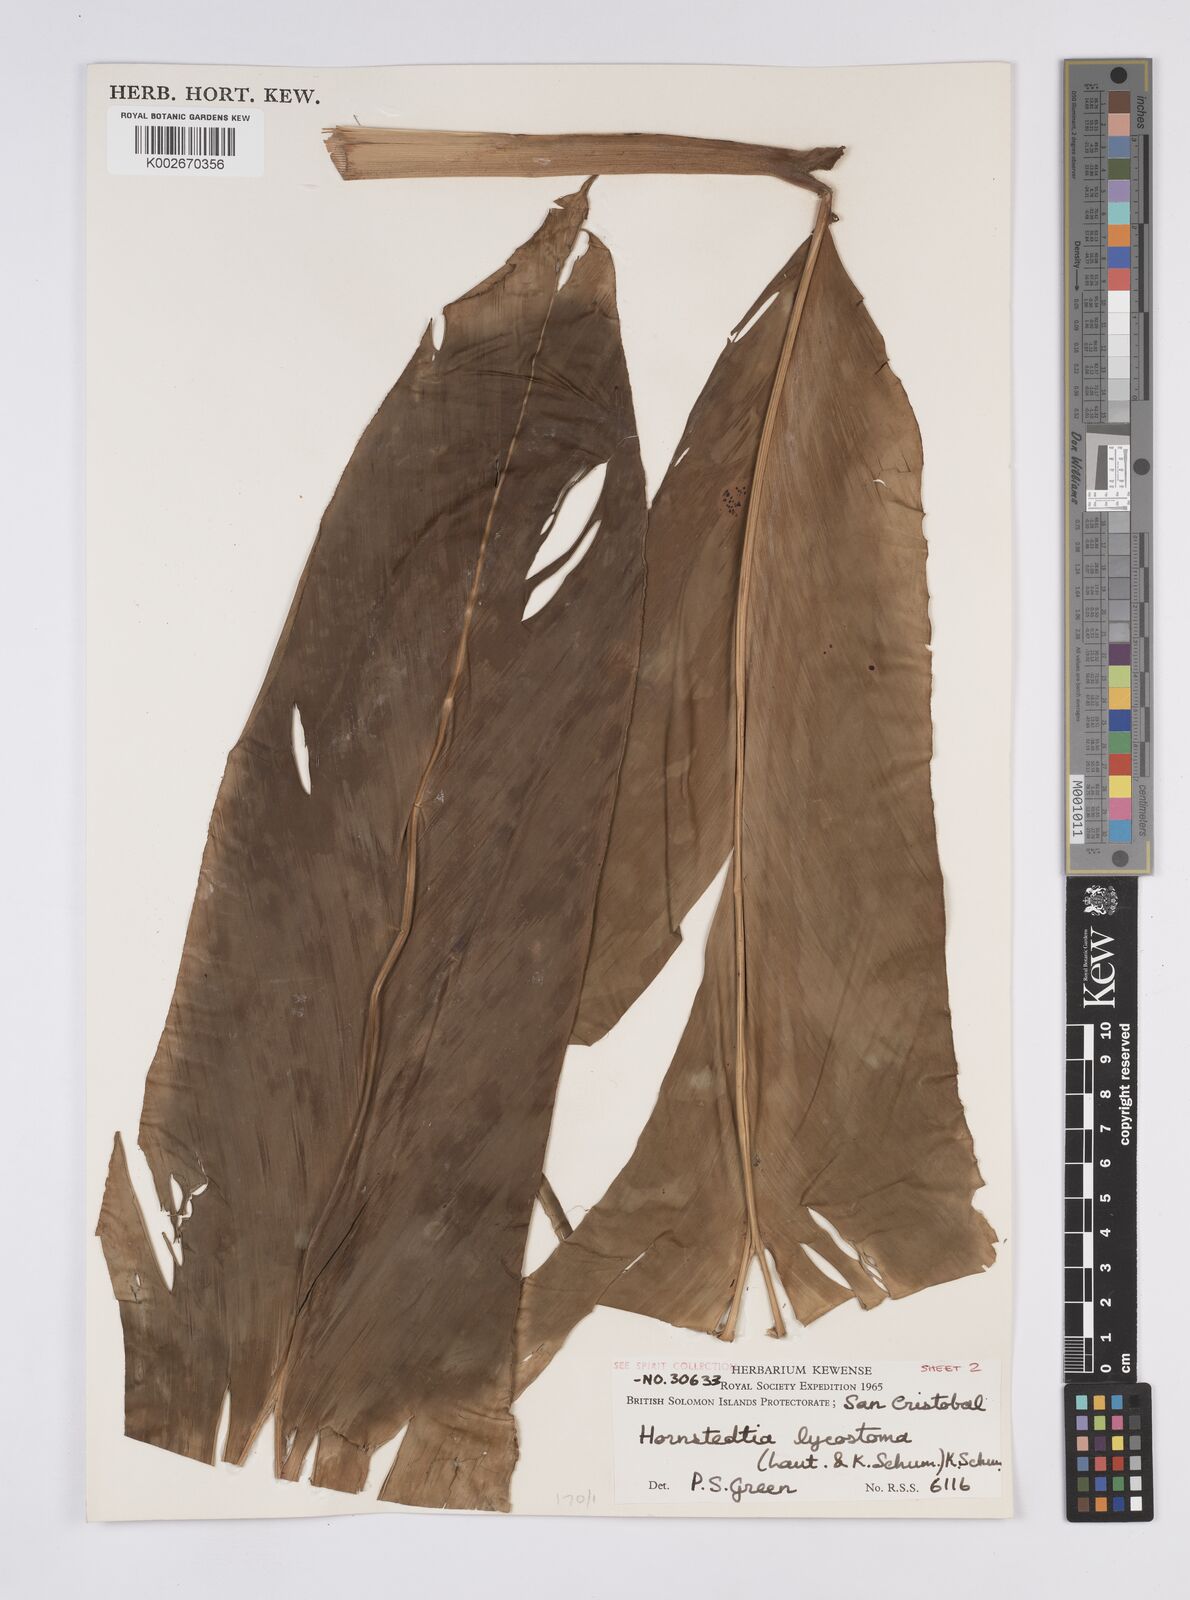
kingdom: Plantae
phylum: Tracheophyta
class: Liliopsida
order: Zingiberales
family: Zingiberaceae
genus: Hornstedtia
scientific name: Hornstedtia scottiana
